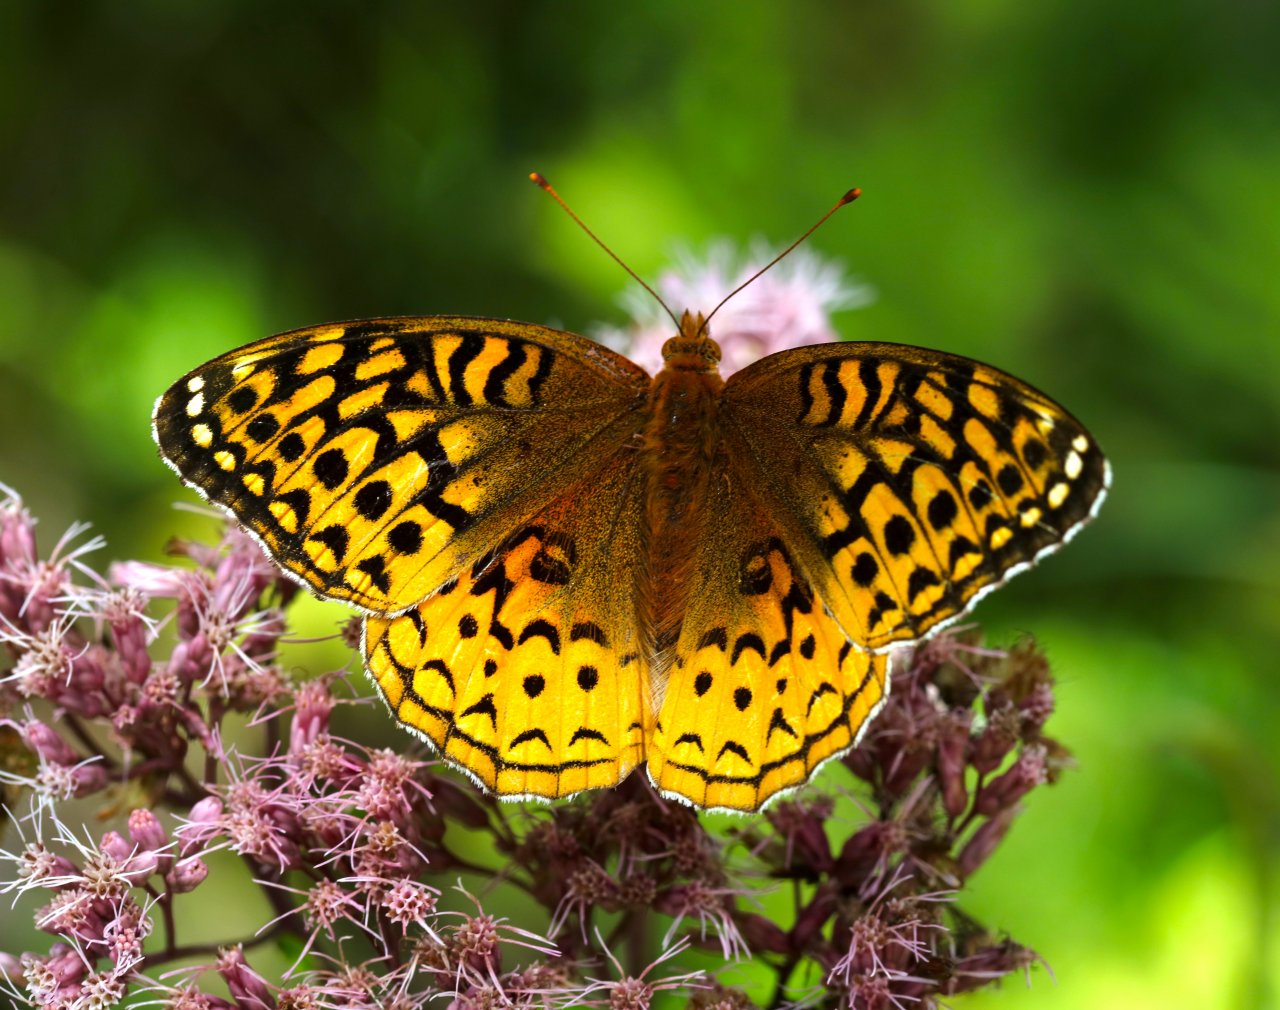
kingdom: Animalia
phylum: Arthropoda
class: Insecta
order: Lepidoptera
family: Nymphalidae
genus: Speyeria
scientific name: Speyeria cybele
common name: Great Spangled Fritillary
